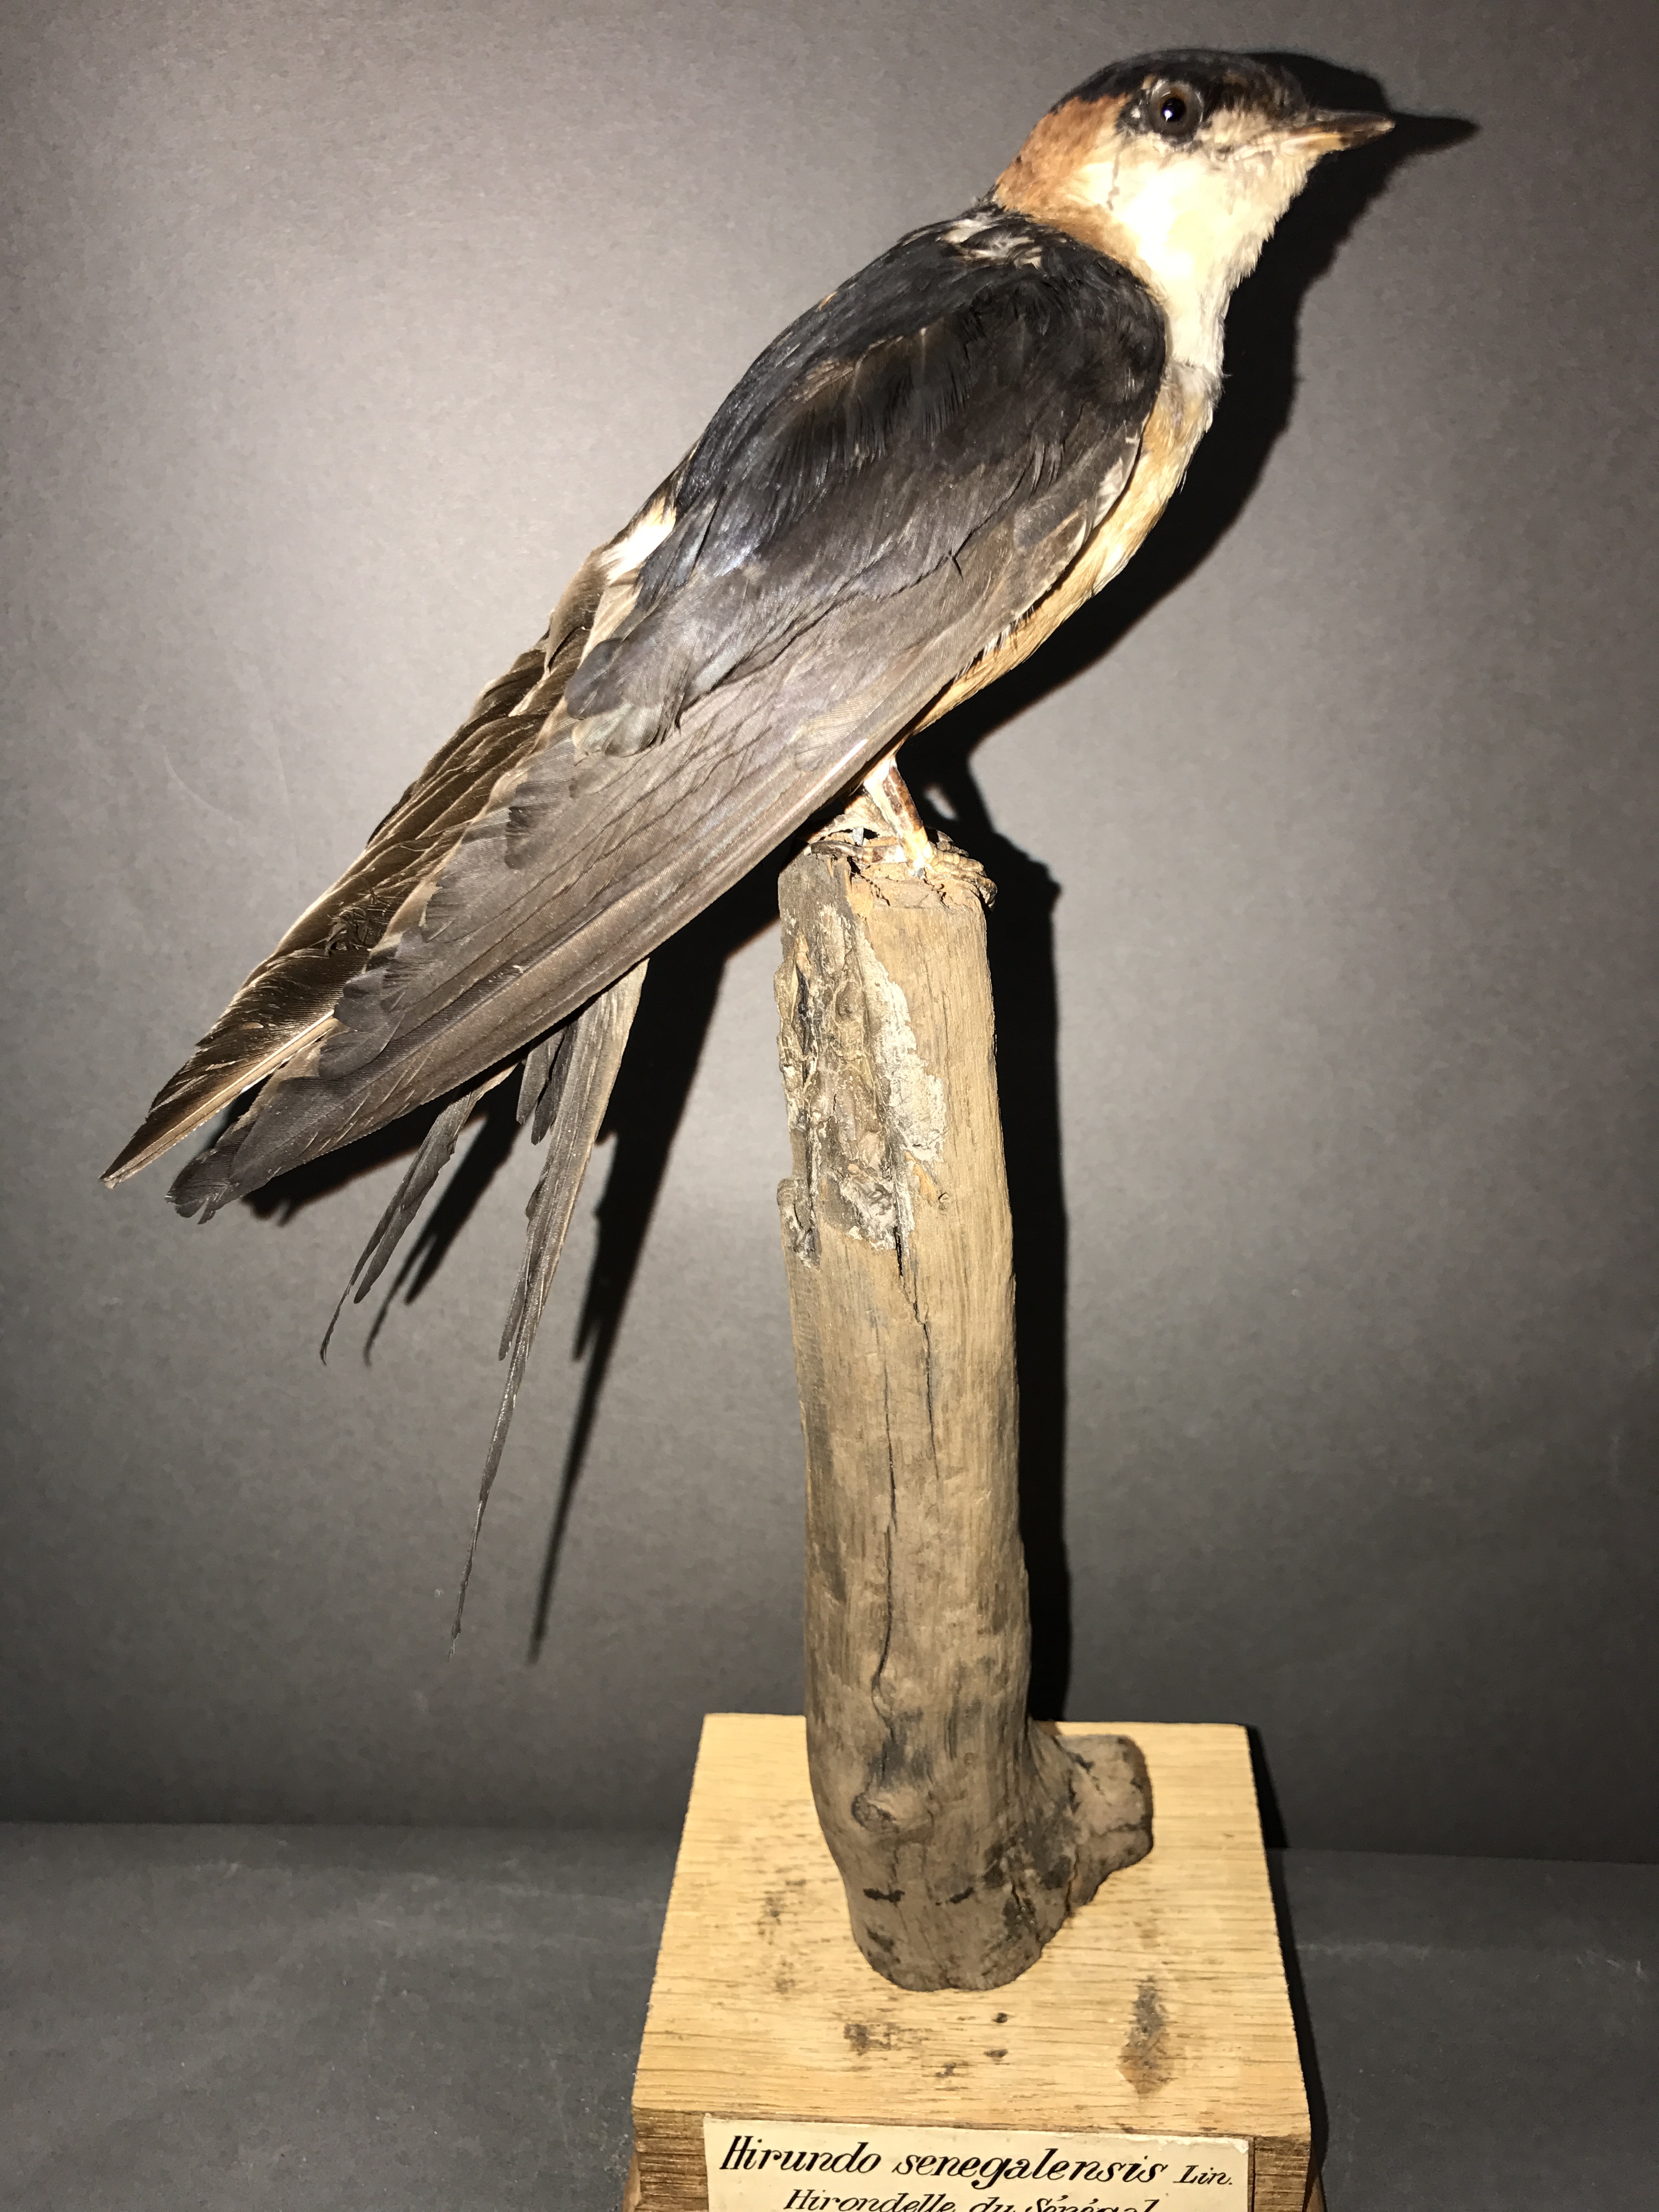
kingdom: Animalia
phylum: Chordata
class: Aves
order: Passeriformes
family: Hirundinidae
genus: Cecropis
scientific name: Cecropis senegalensis
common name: Mosque swallow
